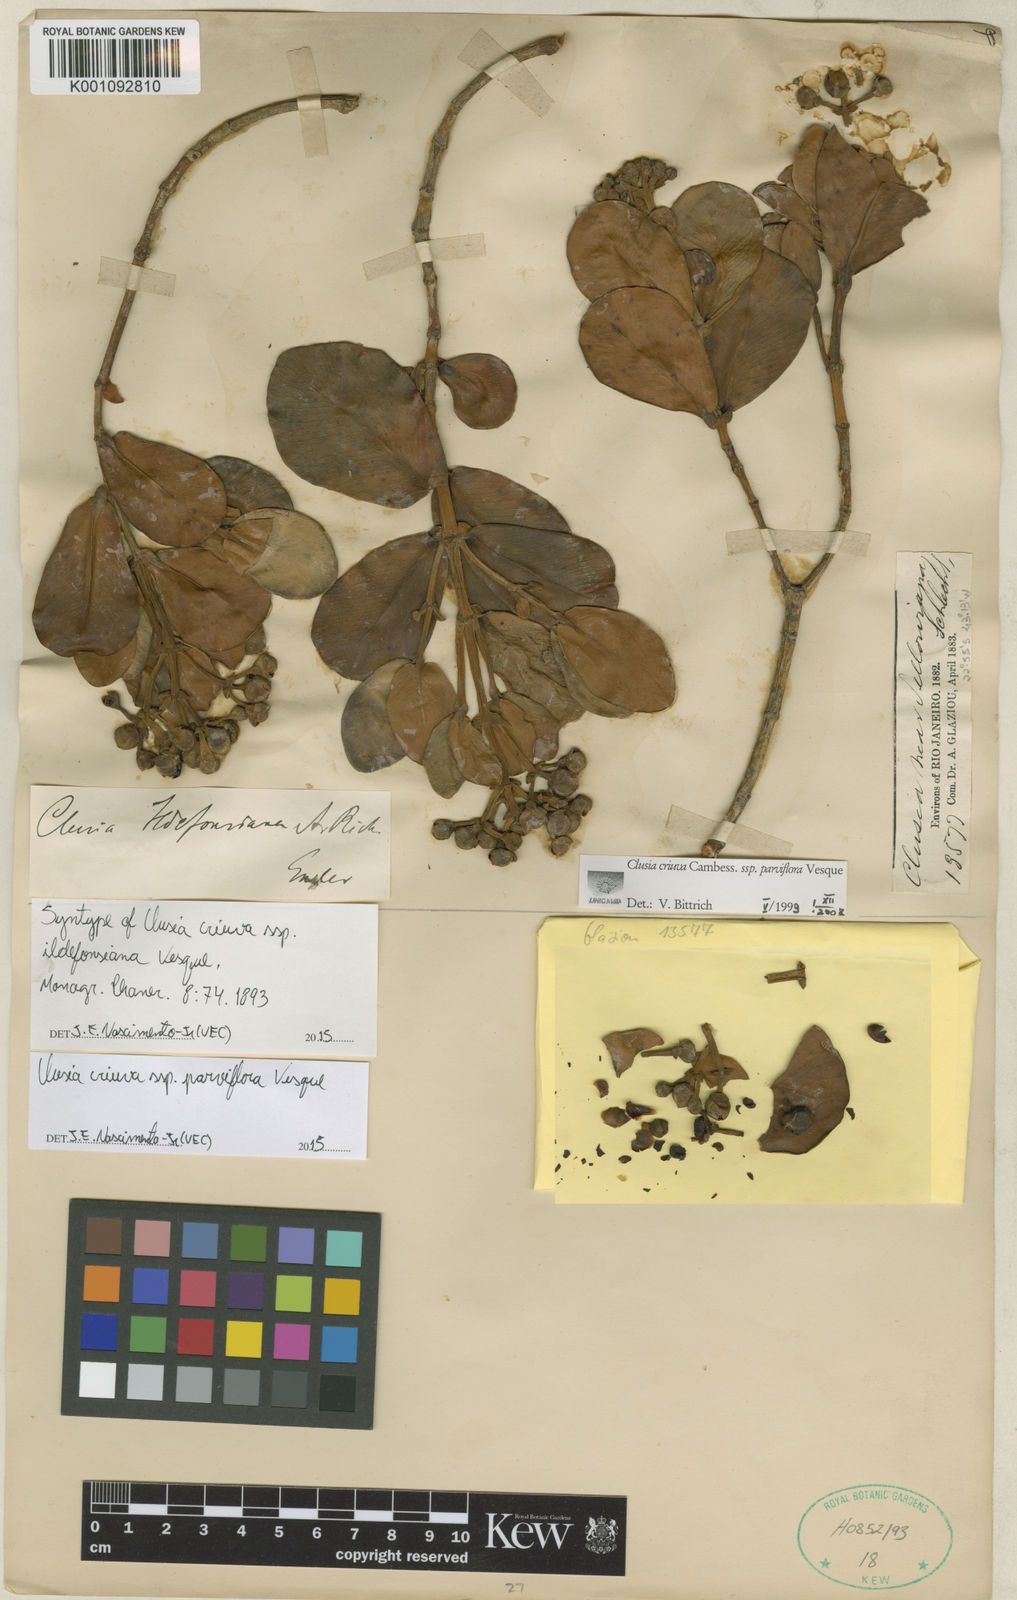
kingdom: Plantae
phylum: Tracheophyta
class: Magnoliopsida
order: Malpighiales
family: Clusiaceae
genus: Clusia
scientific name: Clusia criuva
